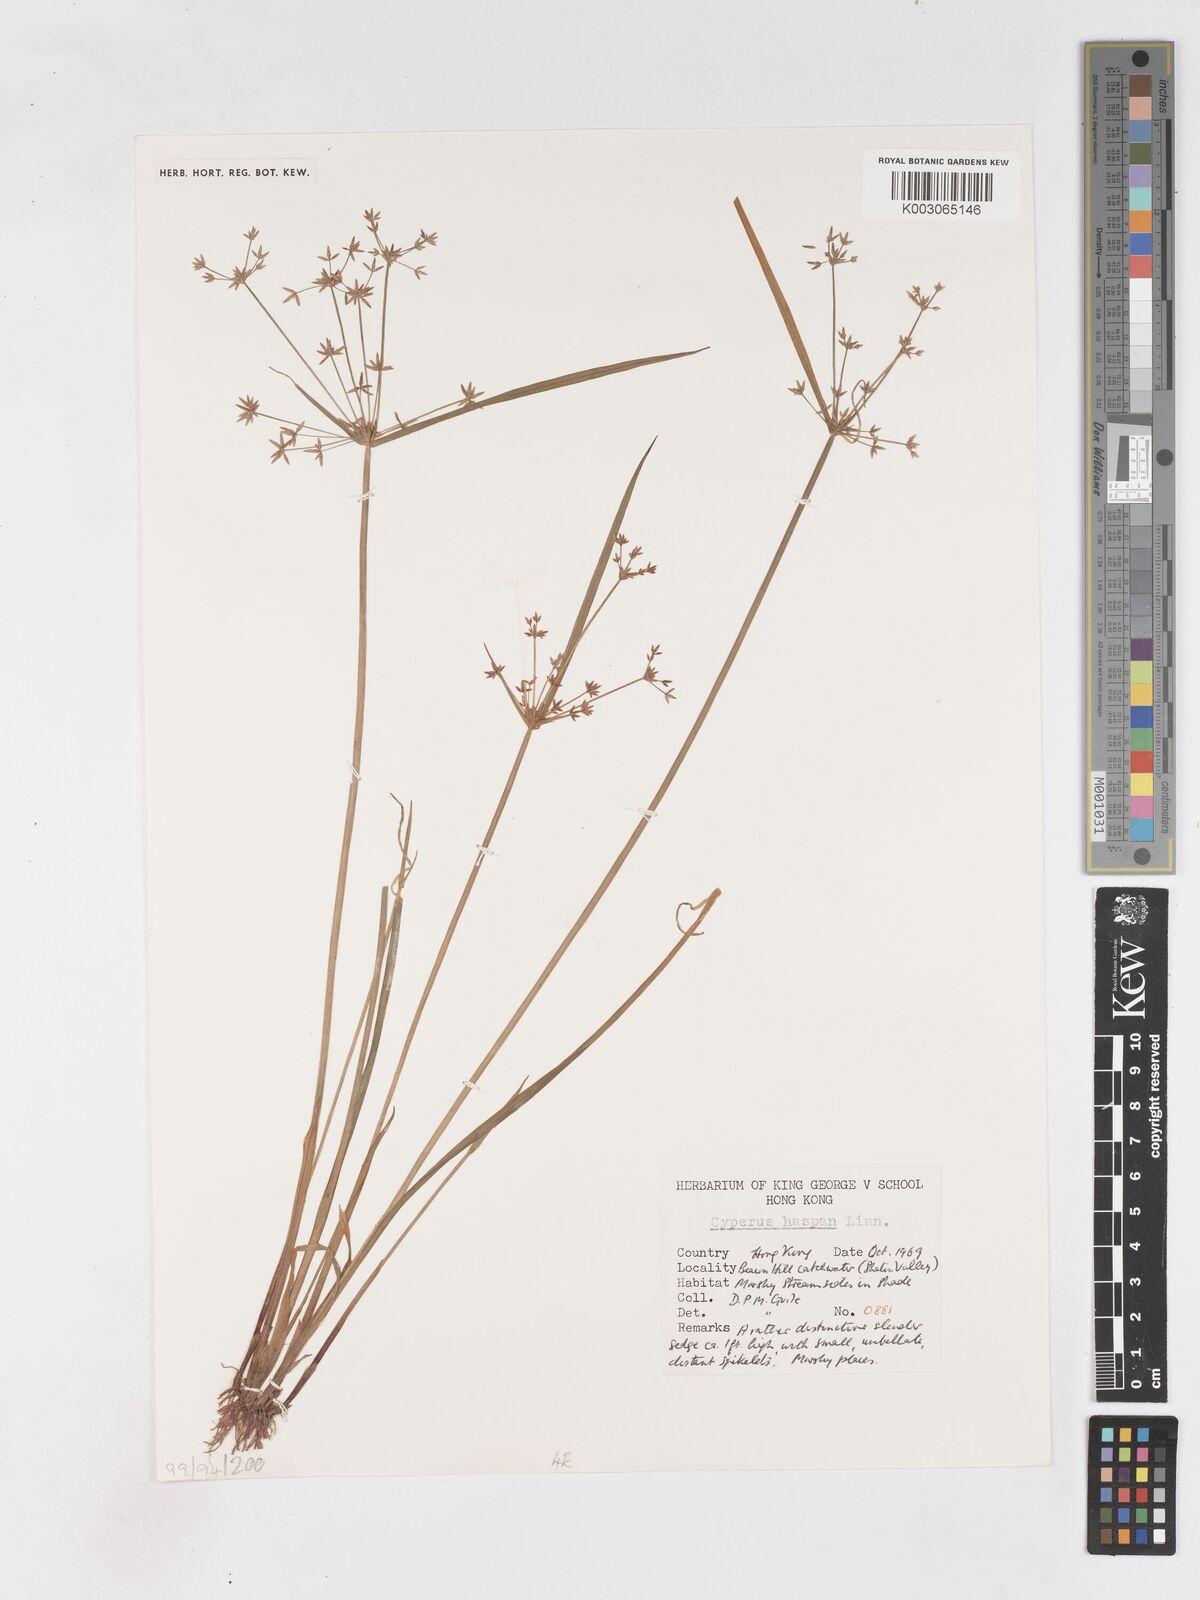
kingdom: Plantae
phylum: Tracheophyta
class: Liliopsida
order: Poales
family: Cyperaceae
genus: Cyperus
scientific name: Cyperus haspan
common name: Haspan flatsedge
